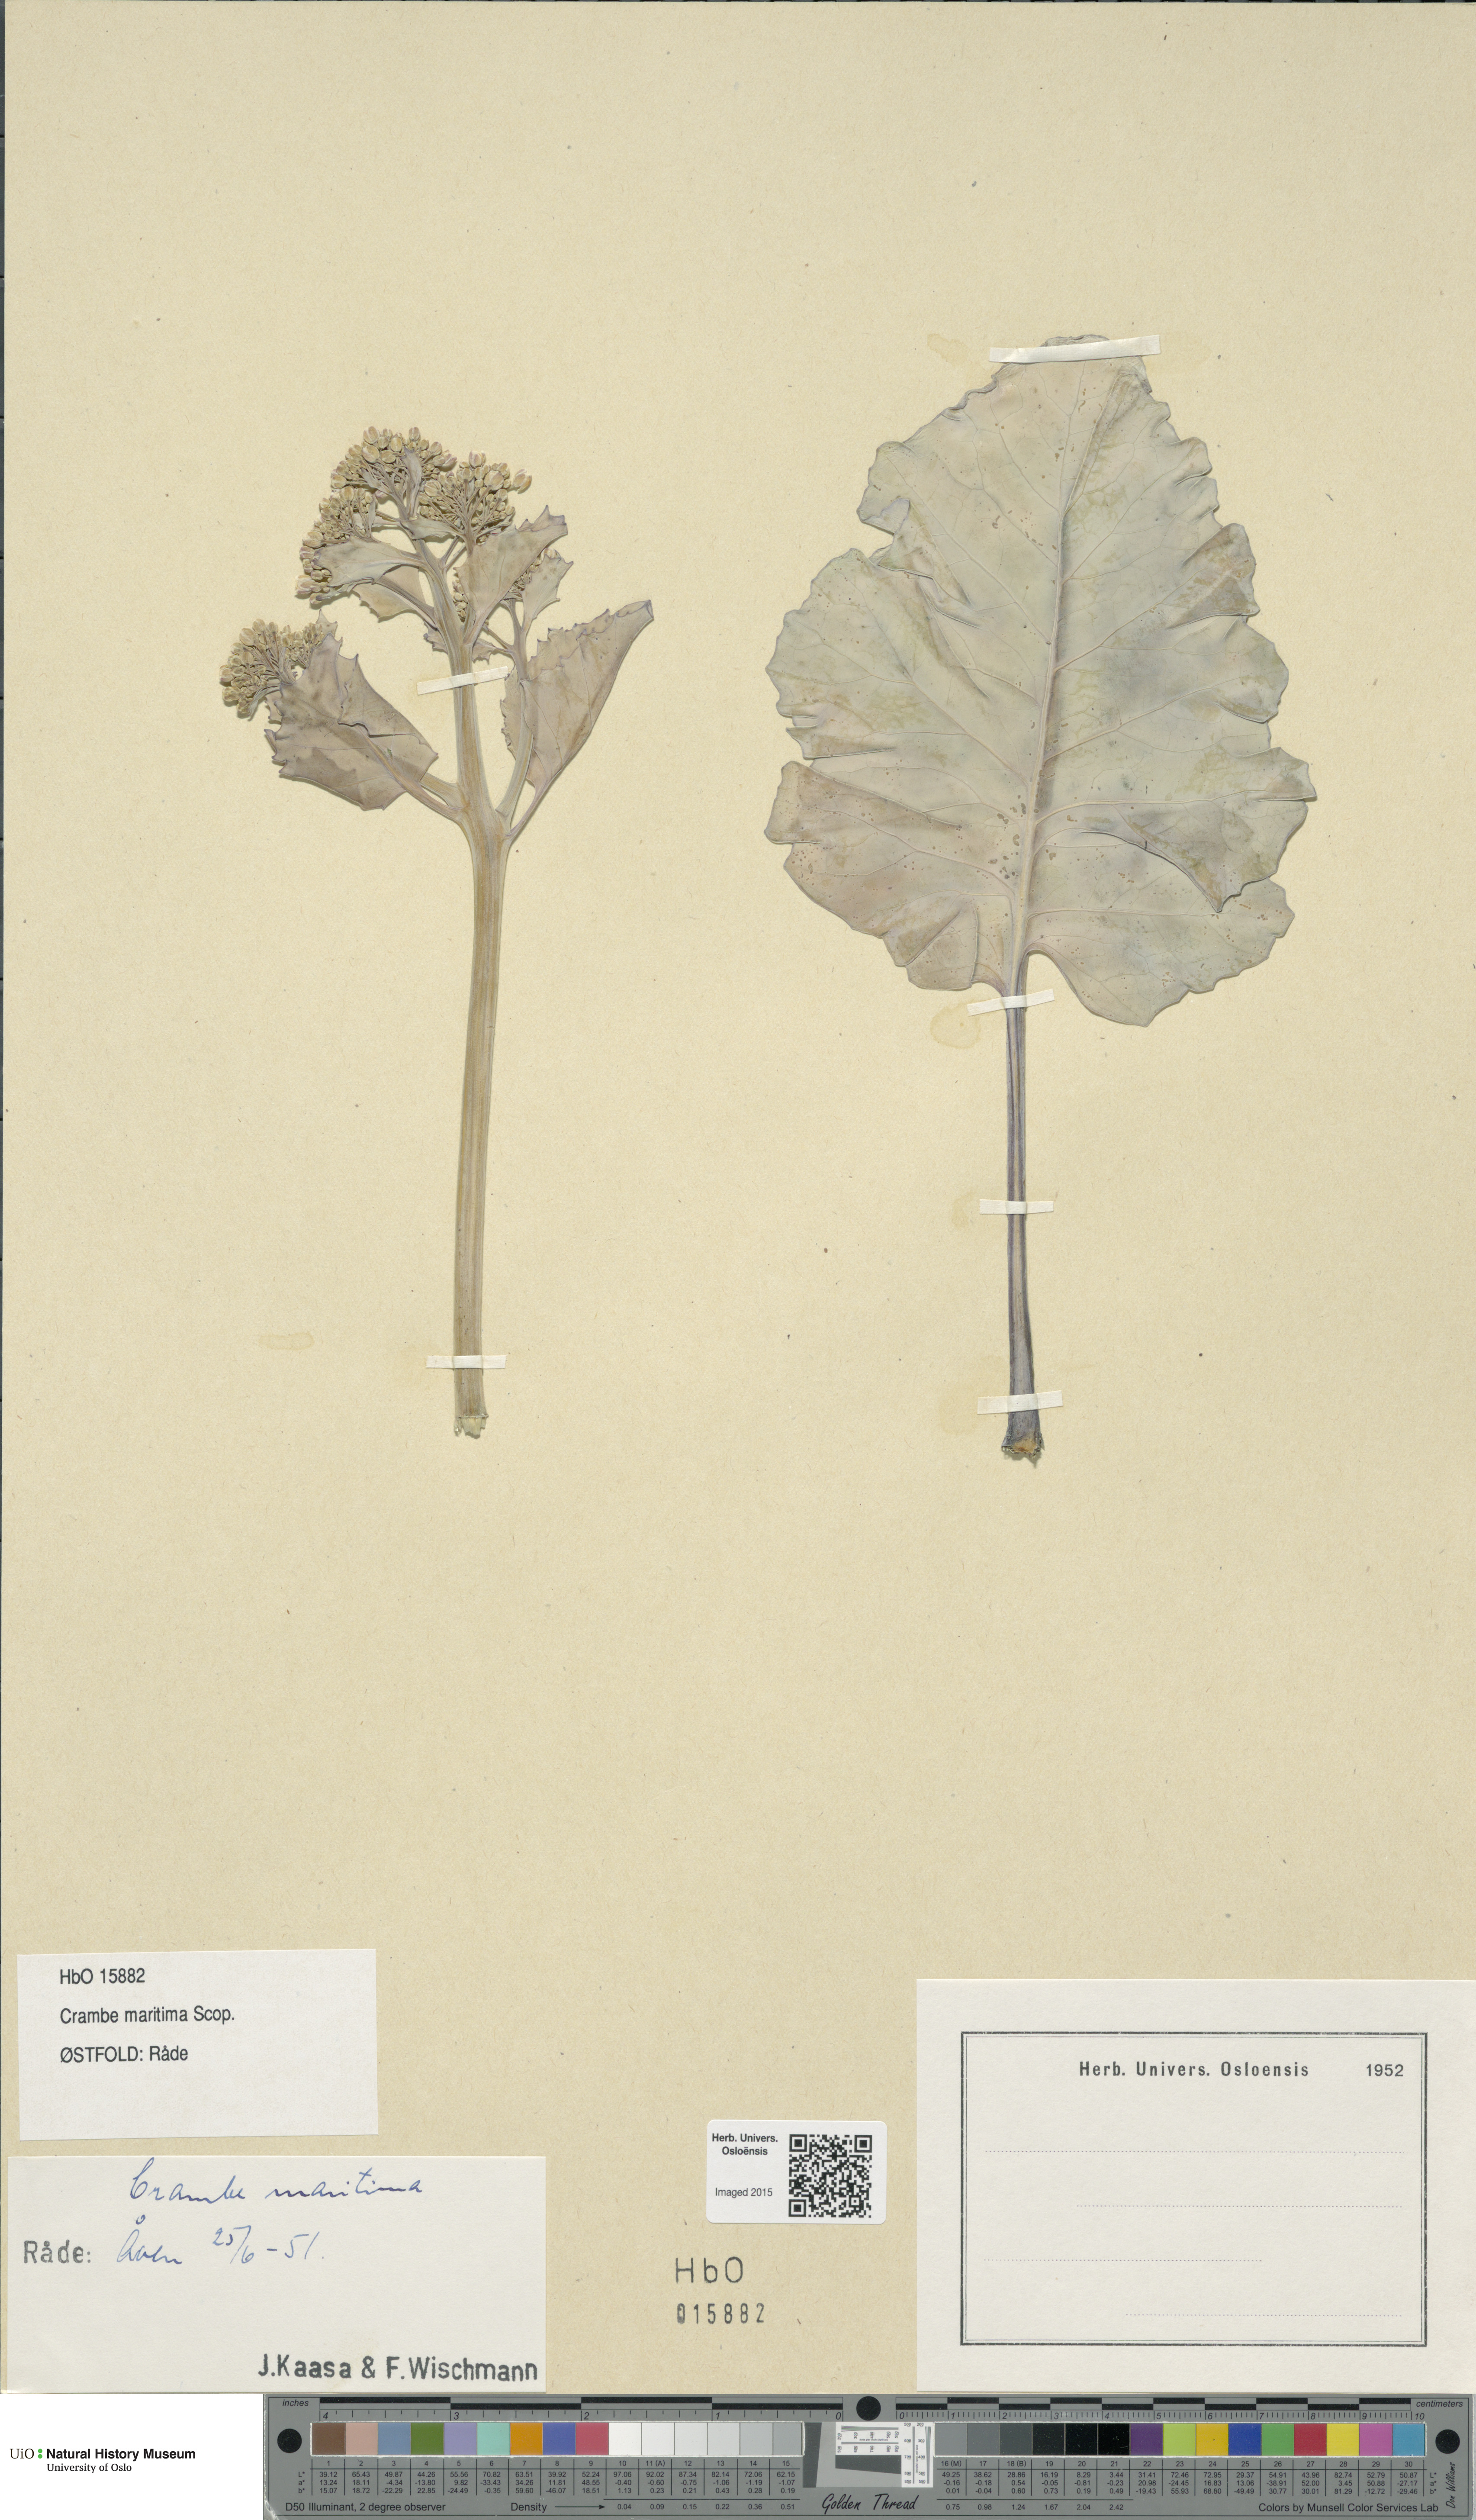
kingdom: Plantae
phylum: Tracheophyta
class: Magnoliopsida
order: Brassicales
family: Brassicaceae
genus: Crambe
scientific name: Crambe maritima
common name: Sea-kale
